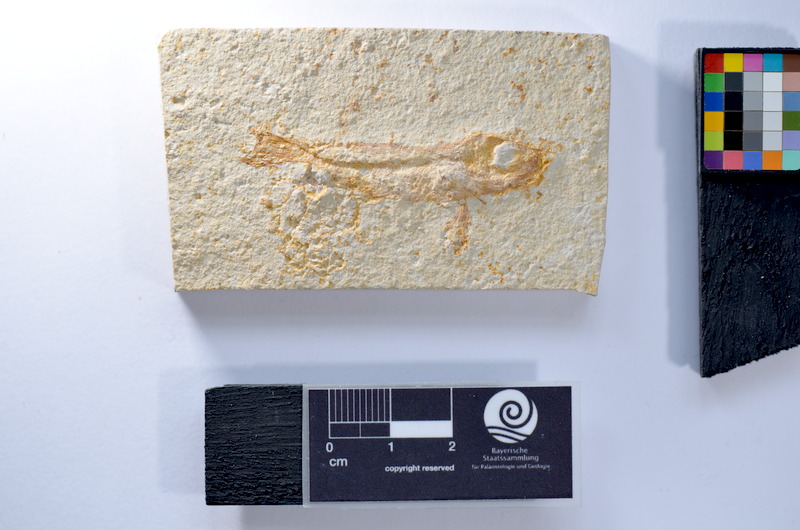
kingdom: Animalia
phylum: Chordata
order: Salmoniformes
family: Orthogonikleithridae
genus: Leptolepides
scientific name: Leptolepides
